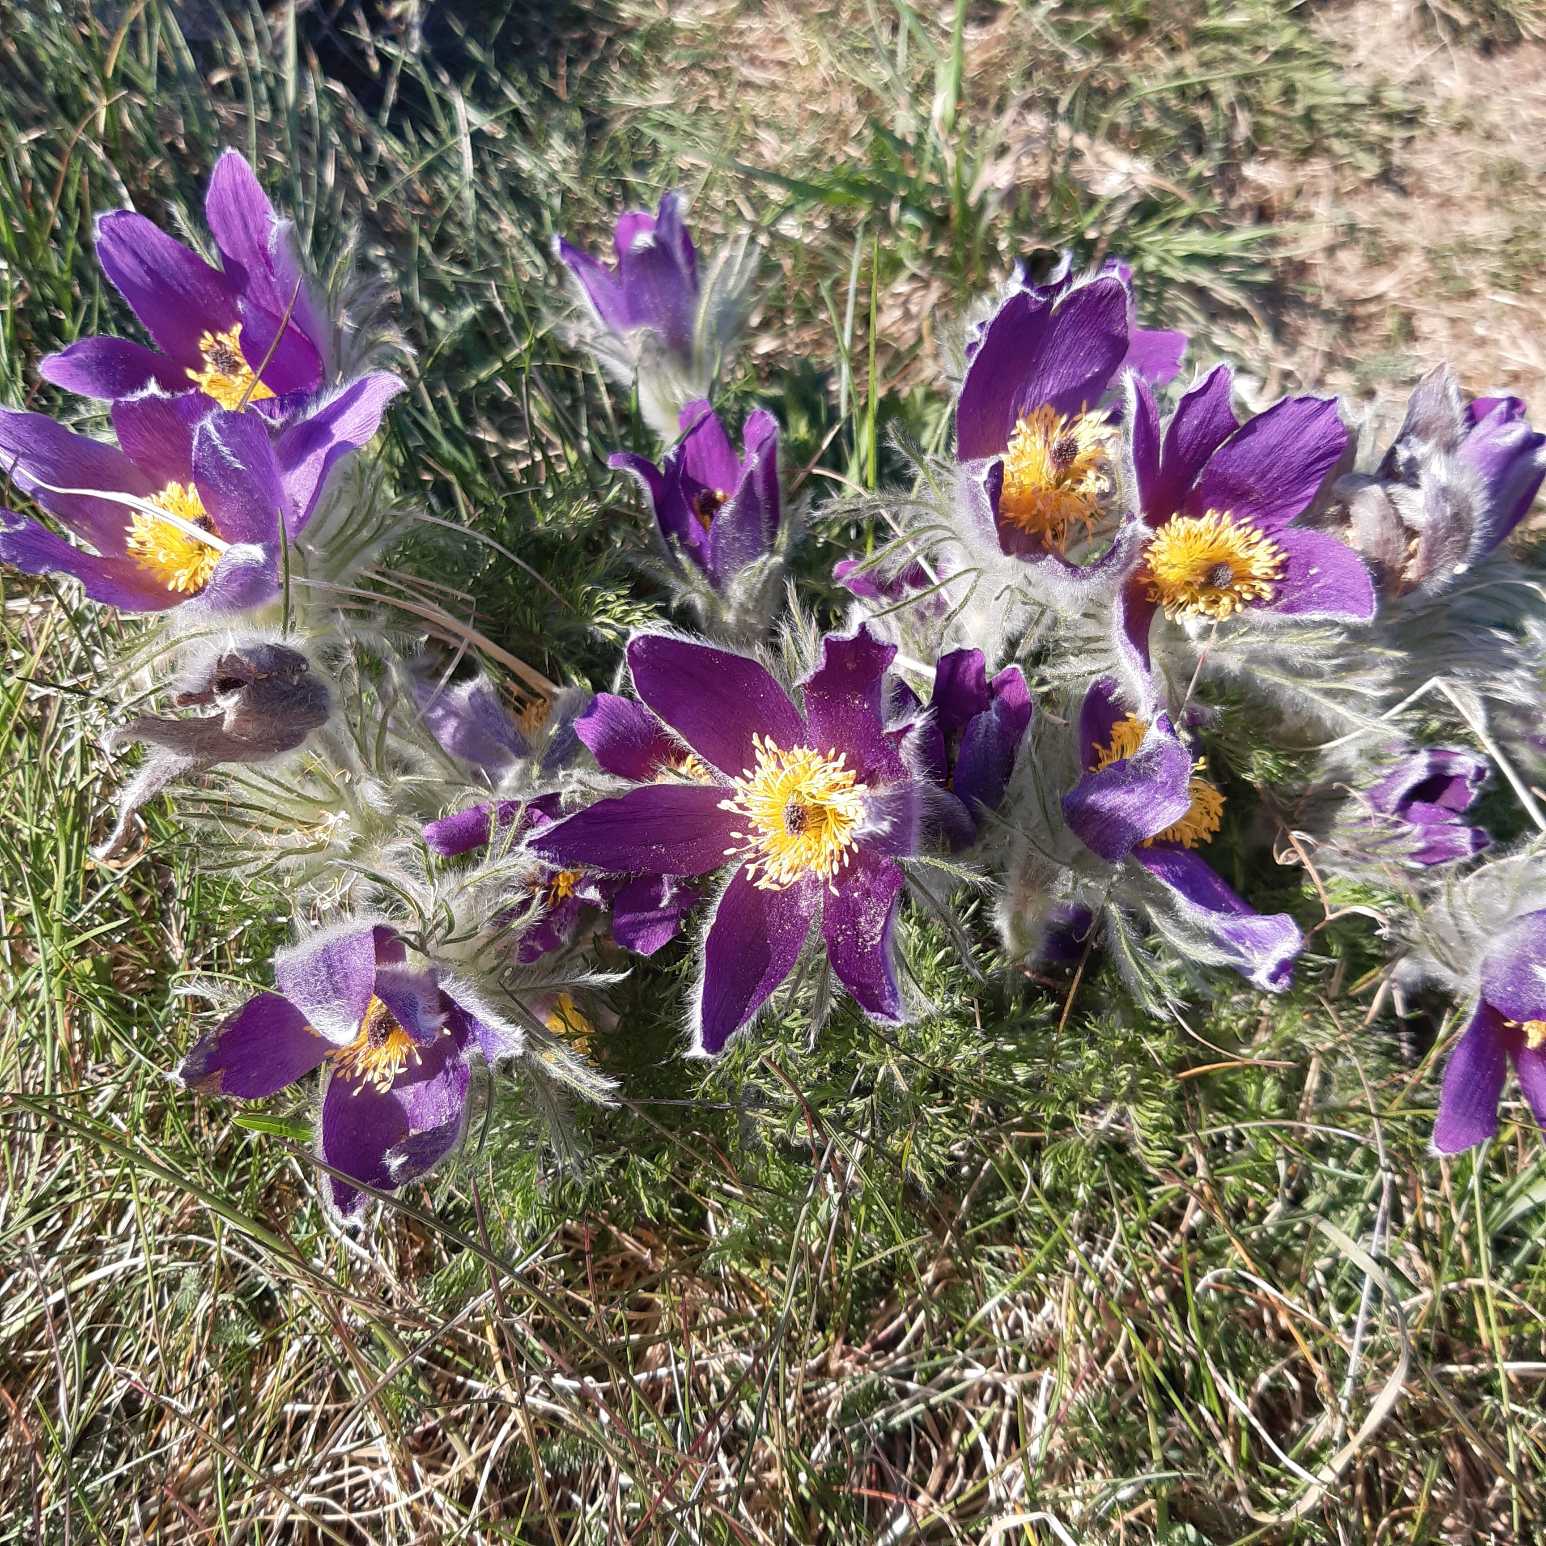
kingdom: Plantae
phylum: Tracheophyta
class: Magnoliopsida
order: Ranunculales
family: Ranunculaceae
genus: Pulsatilla
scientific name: Pulsatilla vulgaris
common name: Opret kobjælde
